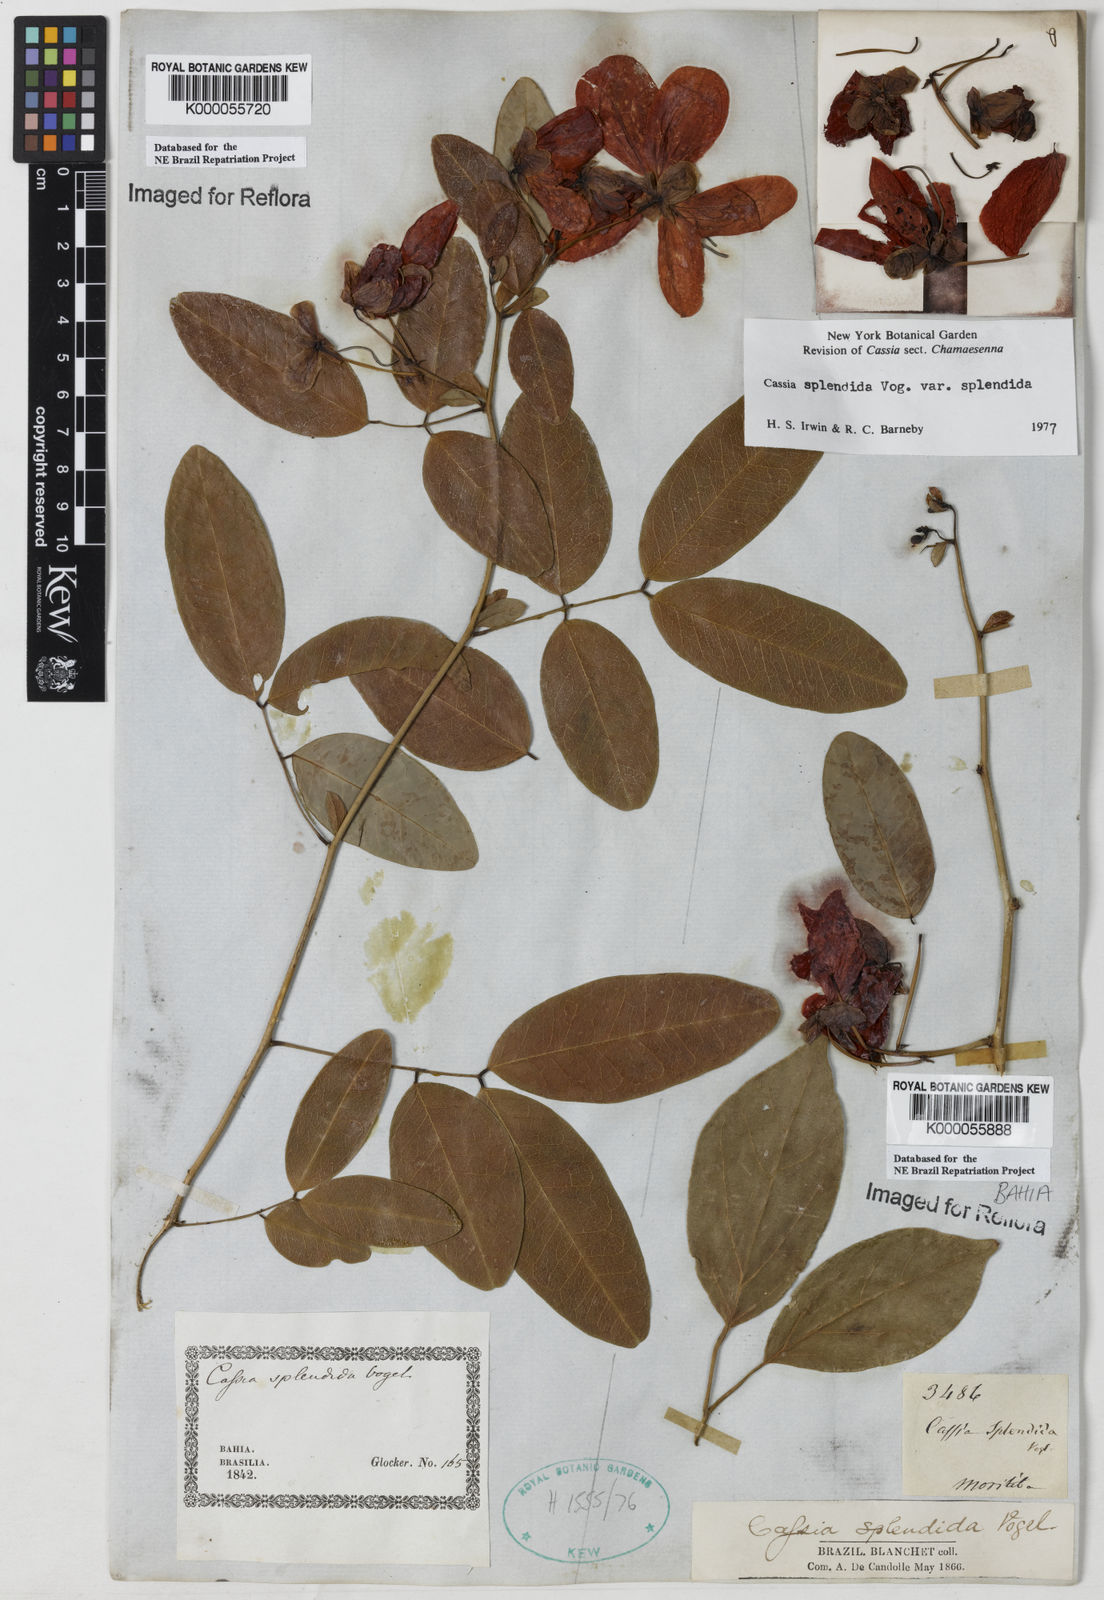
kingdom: Plantae
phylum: Tracheophyta
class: Magnoliopsida
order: Fabales
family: Fabaceae
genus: Senna
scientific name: Senna splendida
